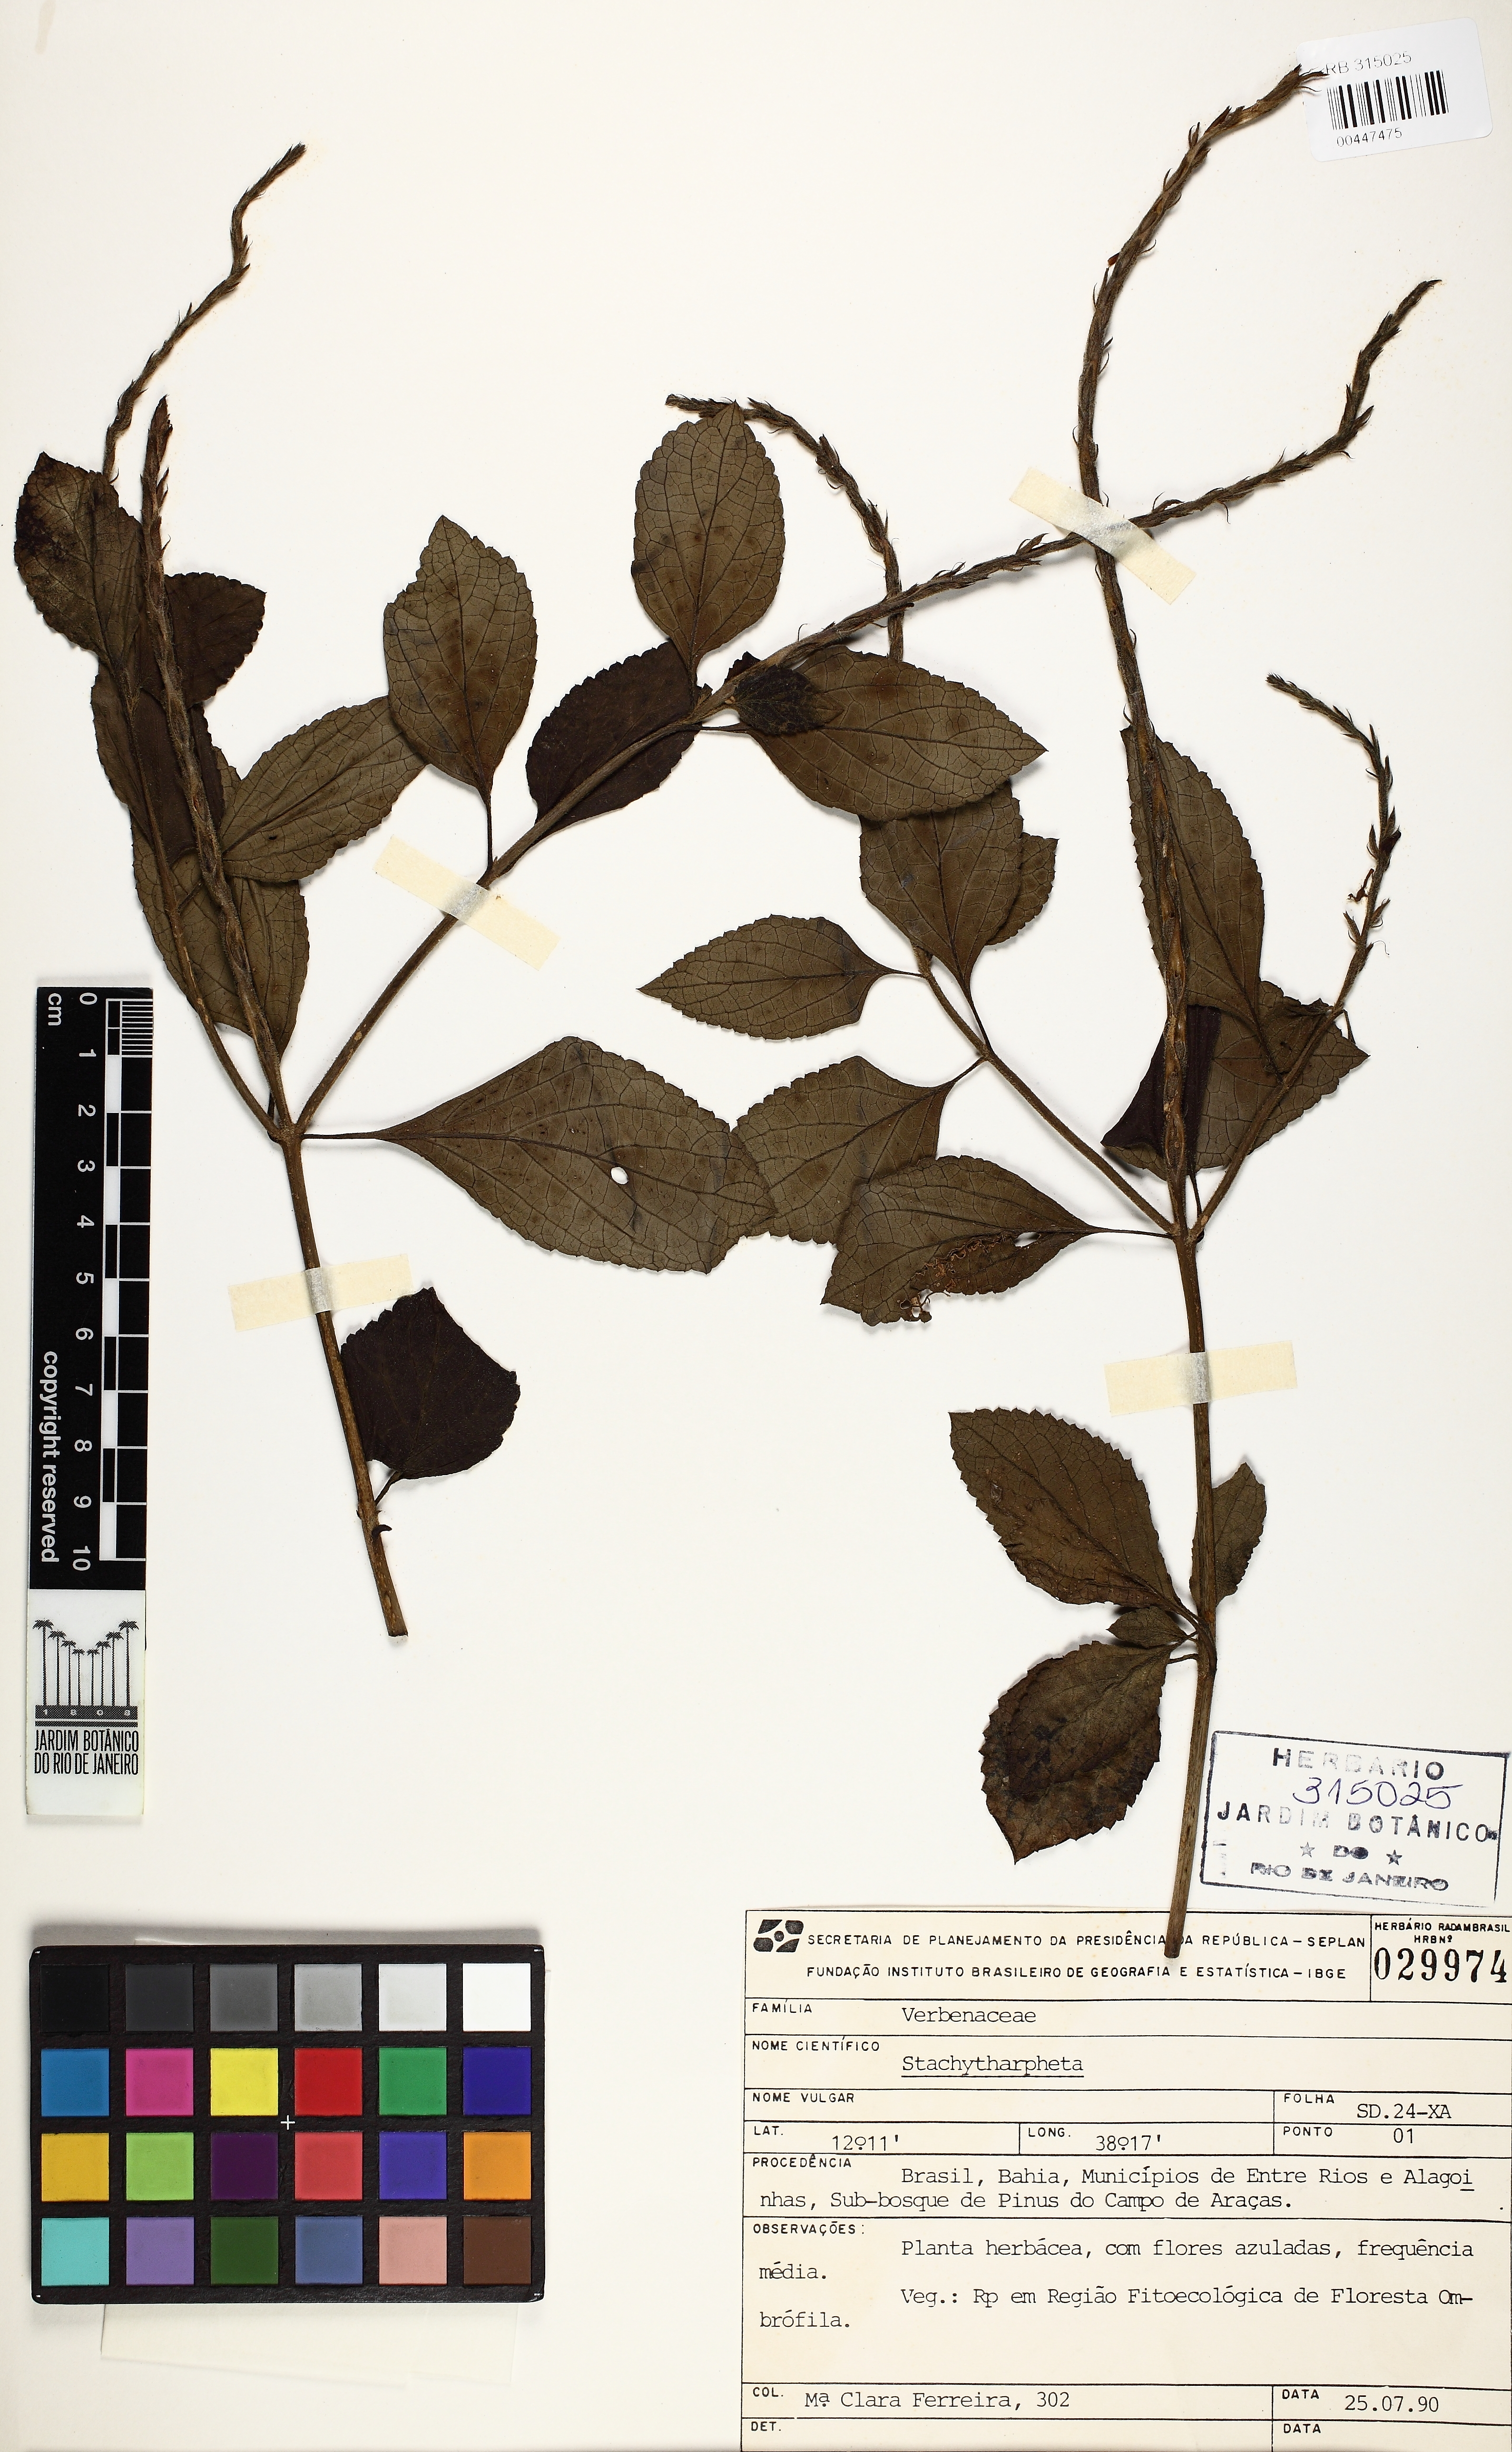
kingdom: Plantae
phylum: Tracheophyta
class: Magnoliopsida
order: Lamiales
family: Verbenaceae
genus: Stachytarpheta
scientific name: Stachytarpheta cayennensis
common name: Cayenne porterweed
